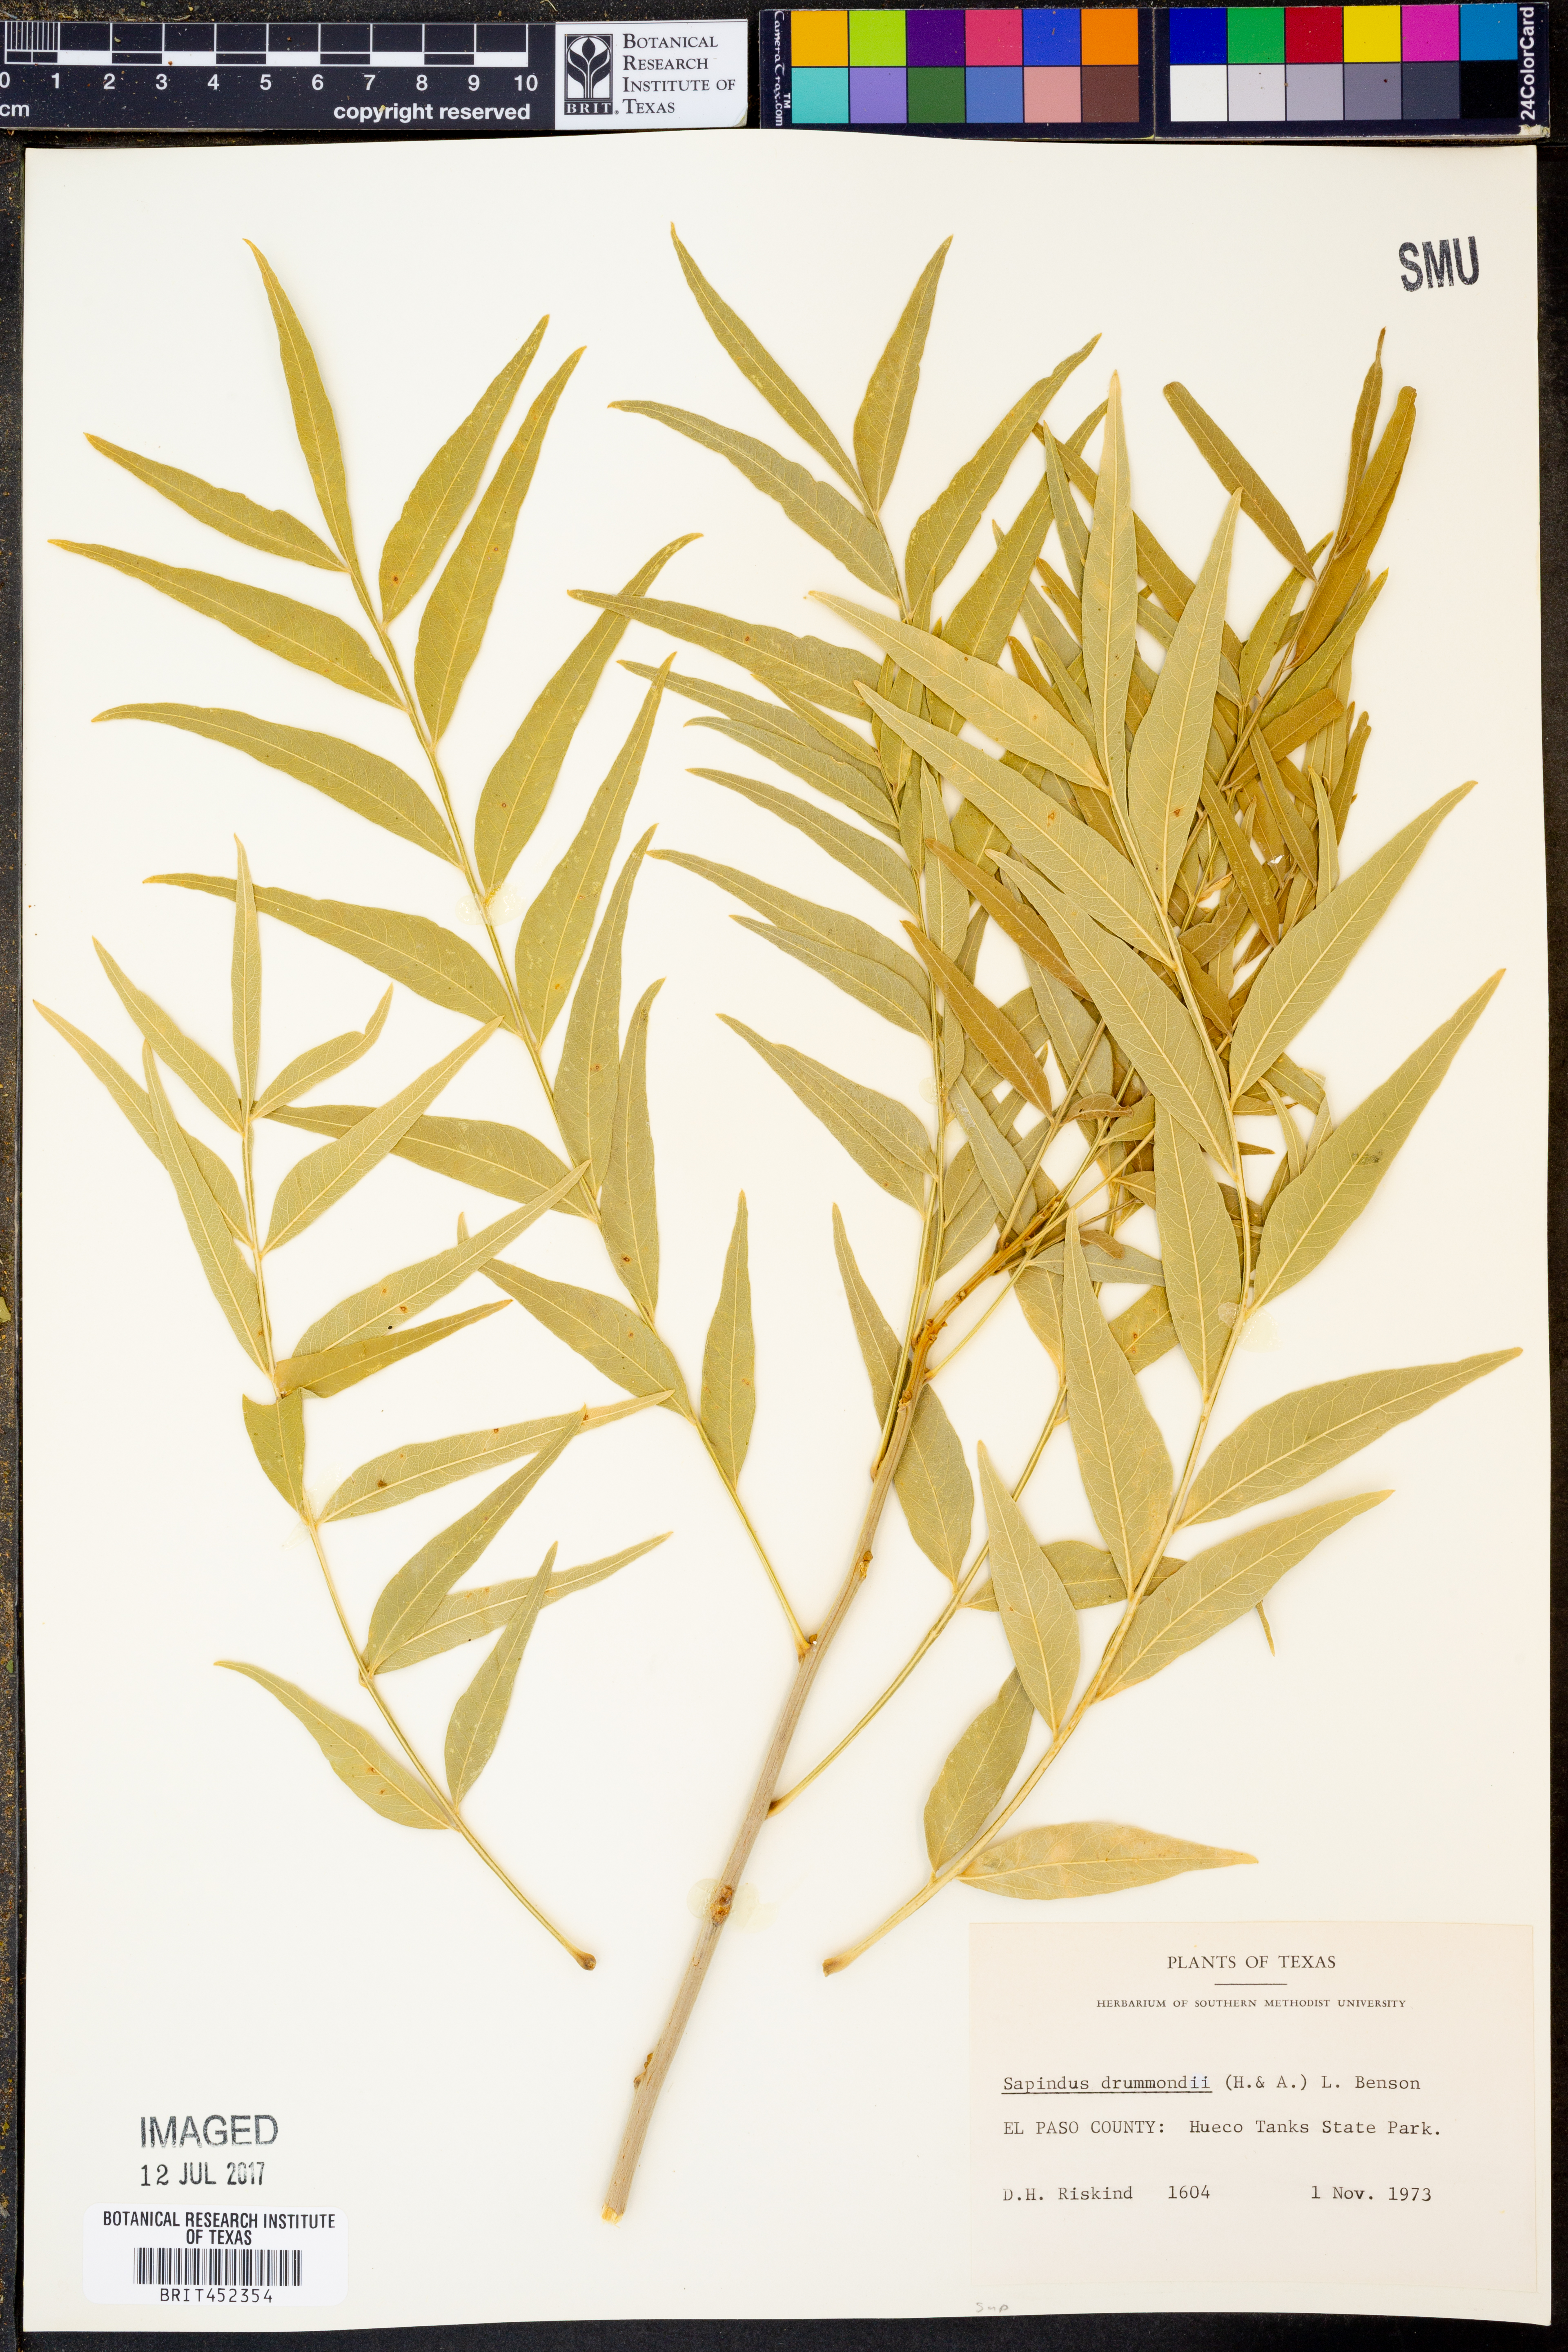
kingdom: Plantae
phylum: Tracheophyta
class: Magnoliopsida
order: Sapindales
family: Sapindaceae
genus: Sapindus
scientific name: Sapindus drummondii
